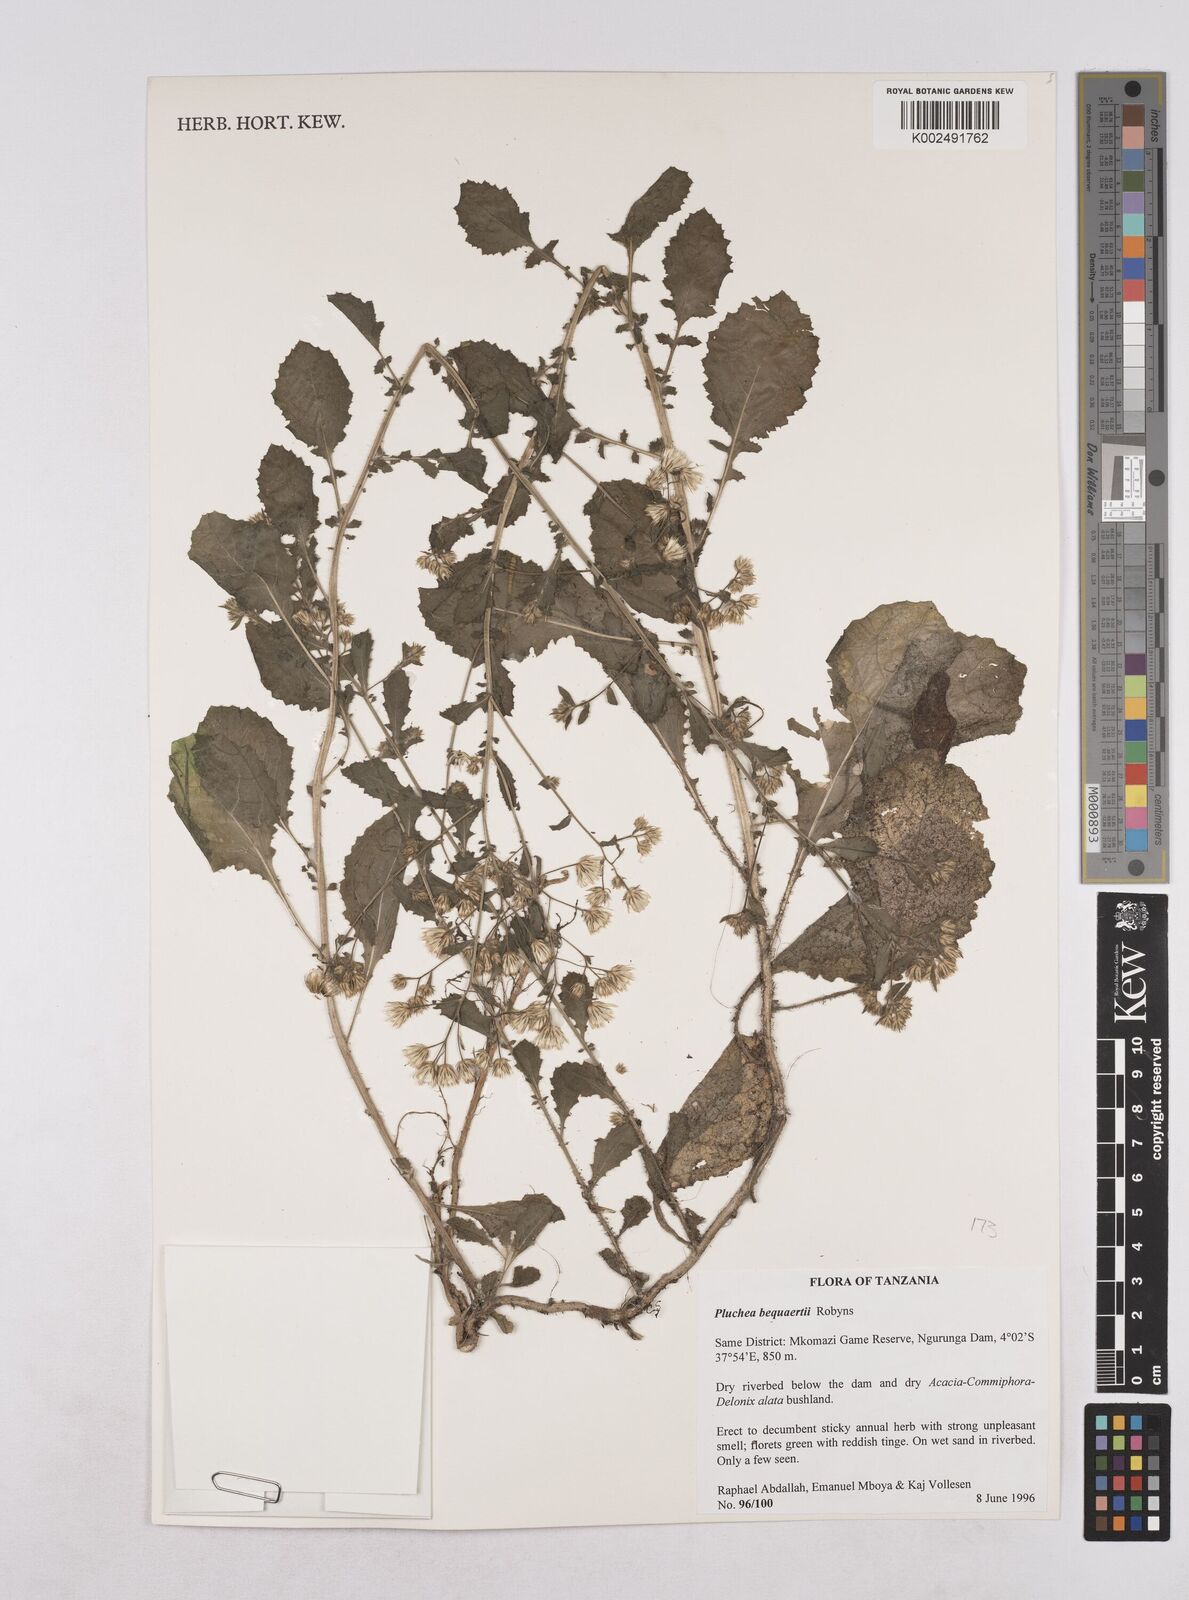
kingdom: Plantae
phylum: Tracheophyta
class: Magnoliopsida
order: Asterales
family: Asteraceae
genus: Pluchea
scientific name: Pluchea sordida
